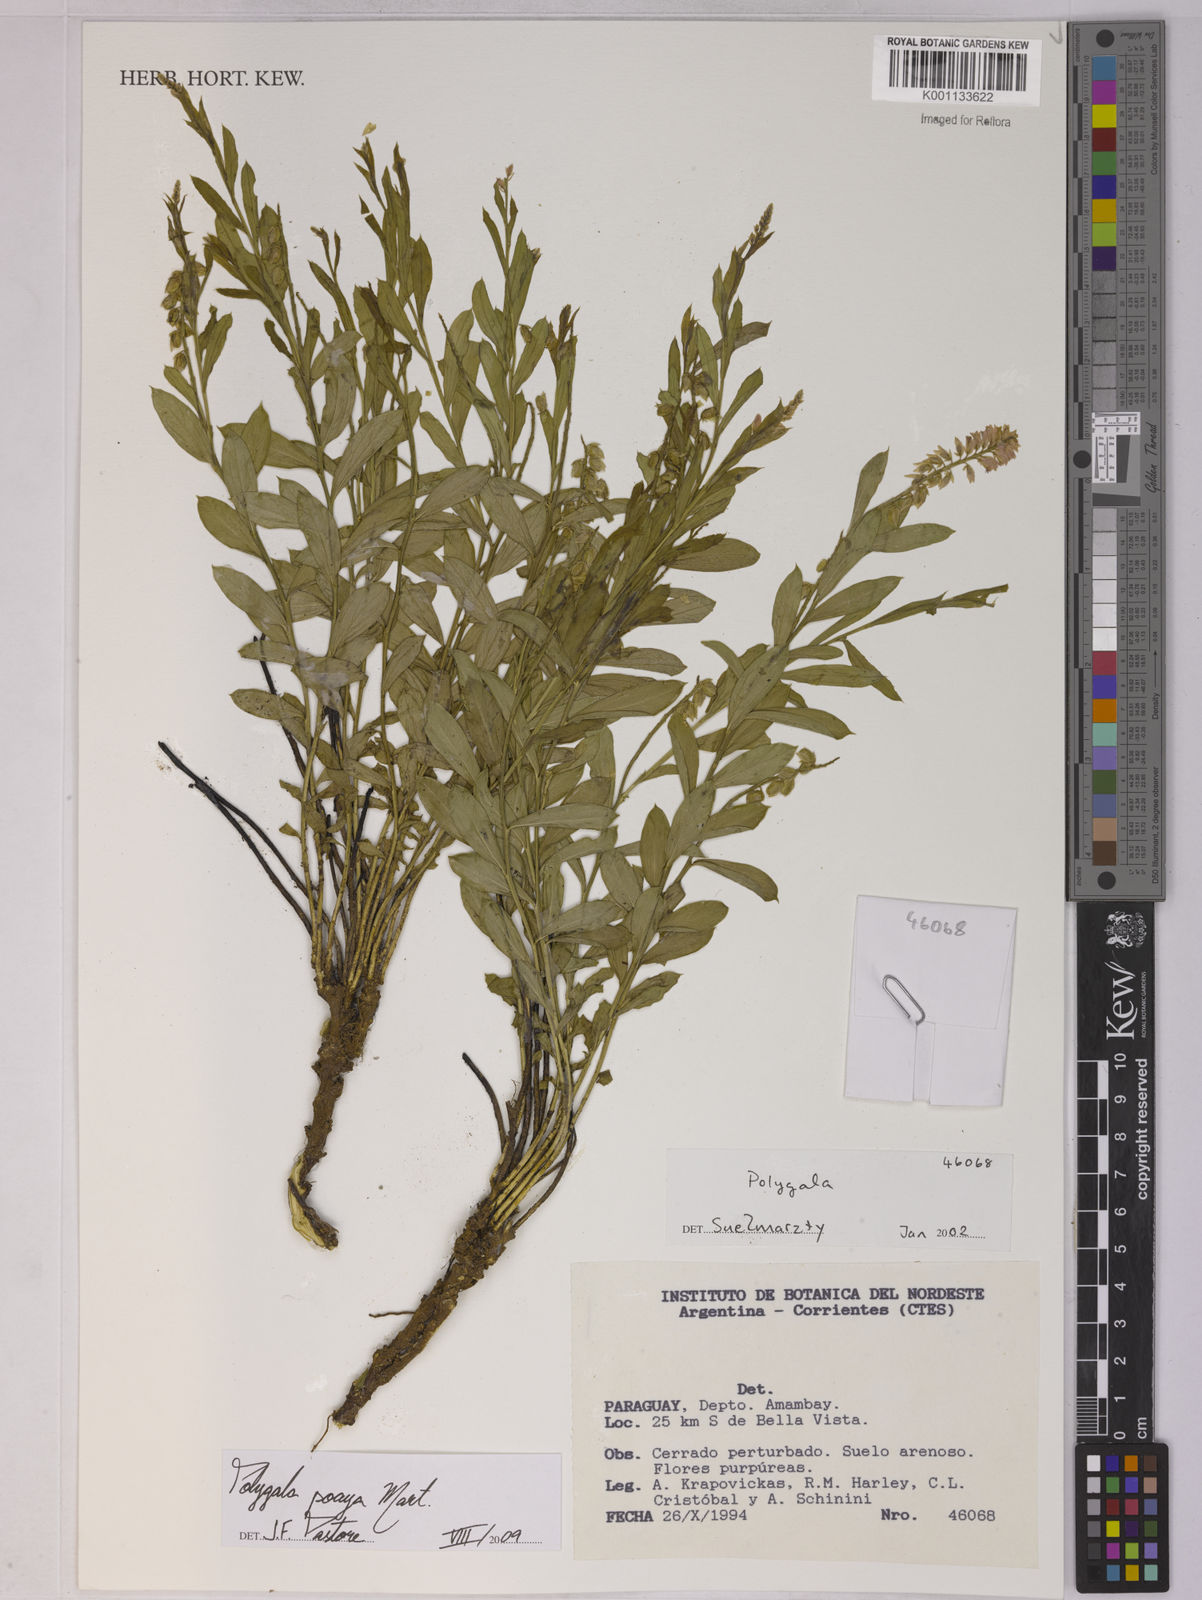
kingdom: Plantae
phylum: Tracheophyta
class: Magnoliopsida
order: Fabales
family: Polygalaceae
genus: Polygala
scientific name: Polygala poaya
